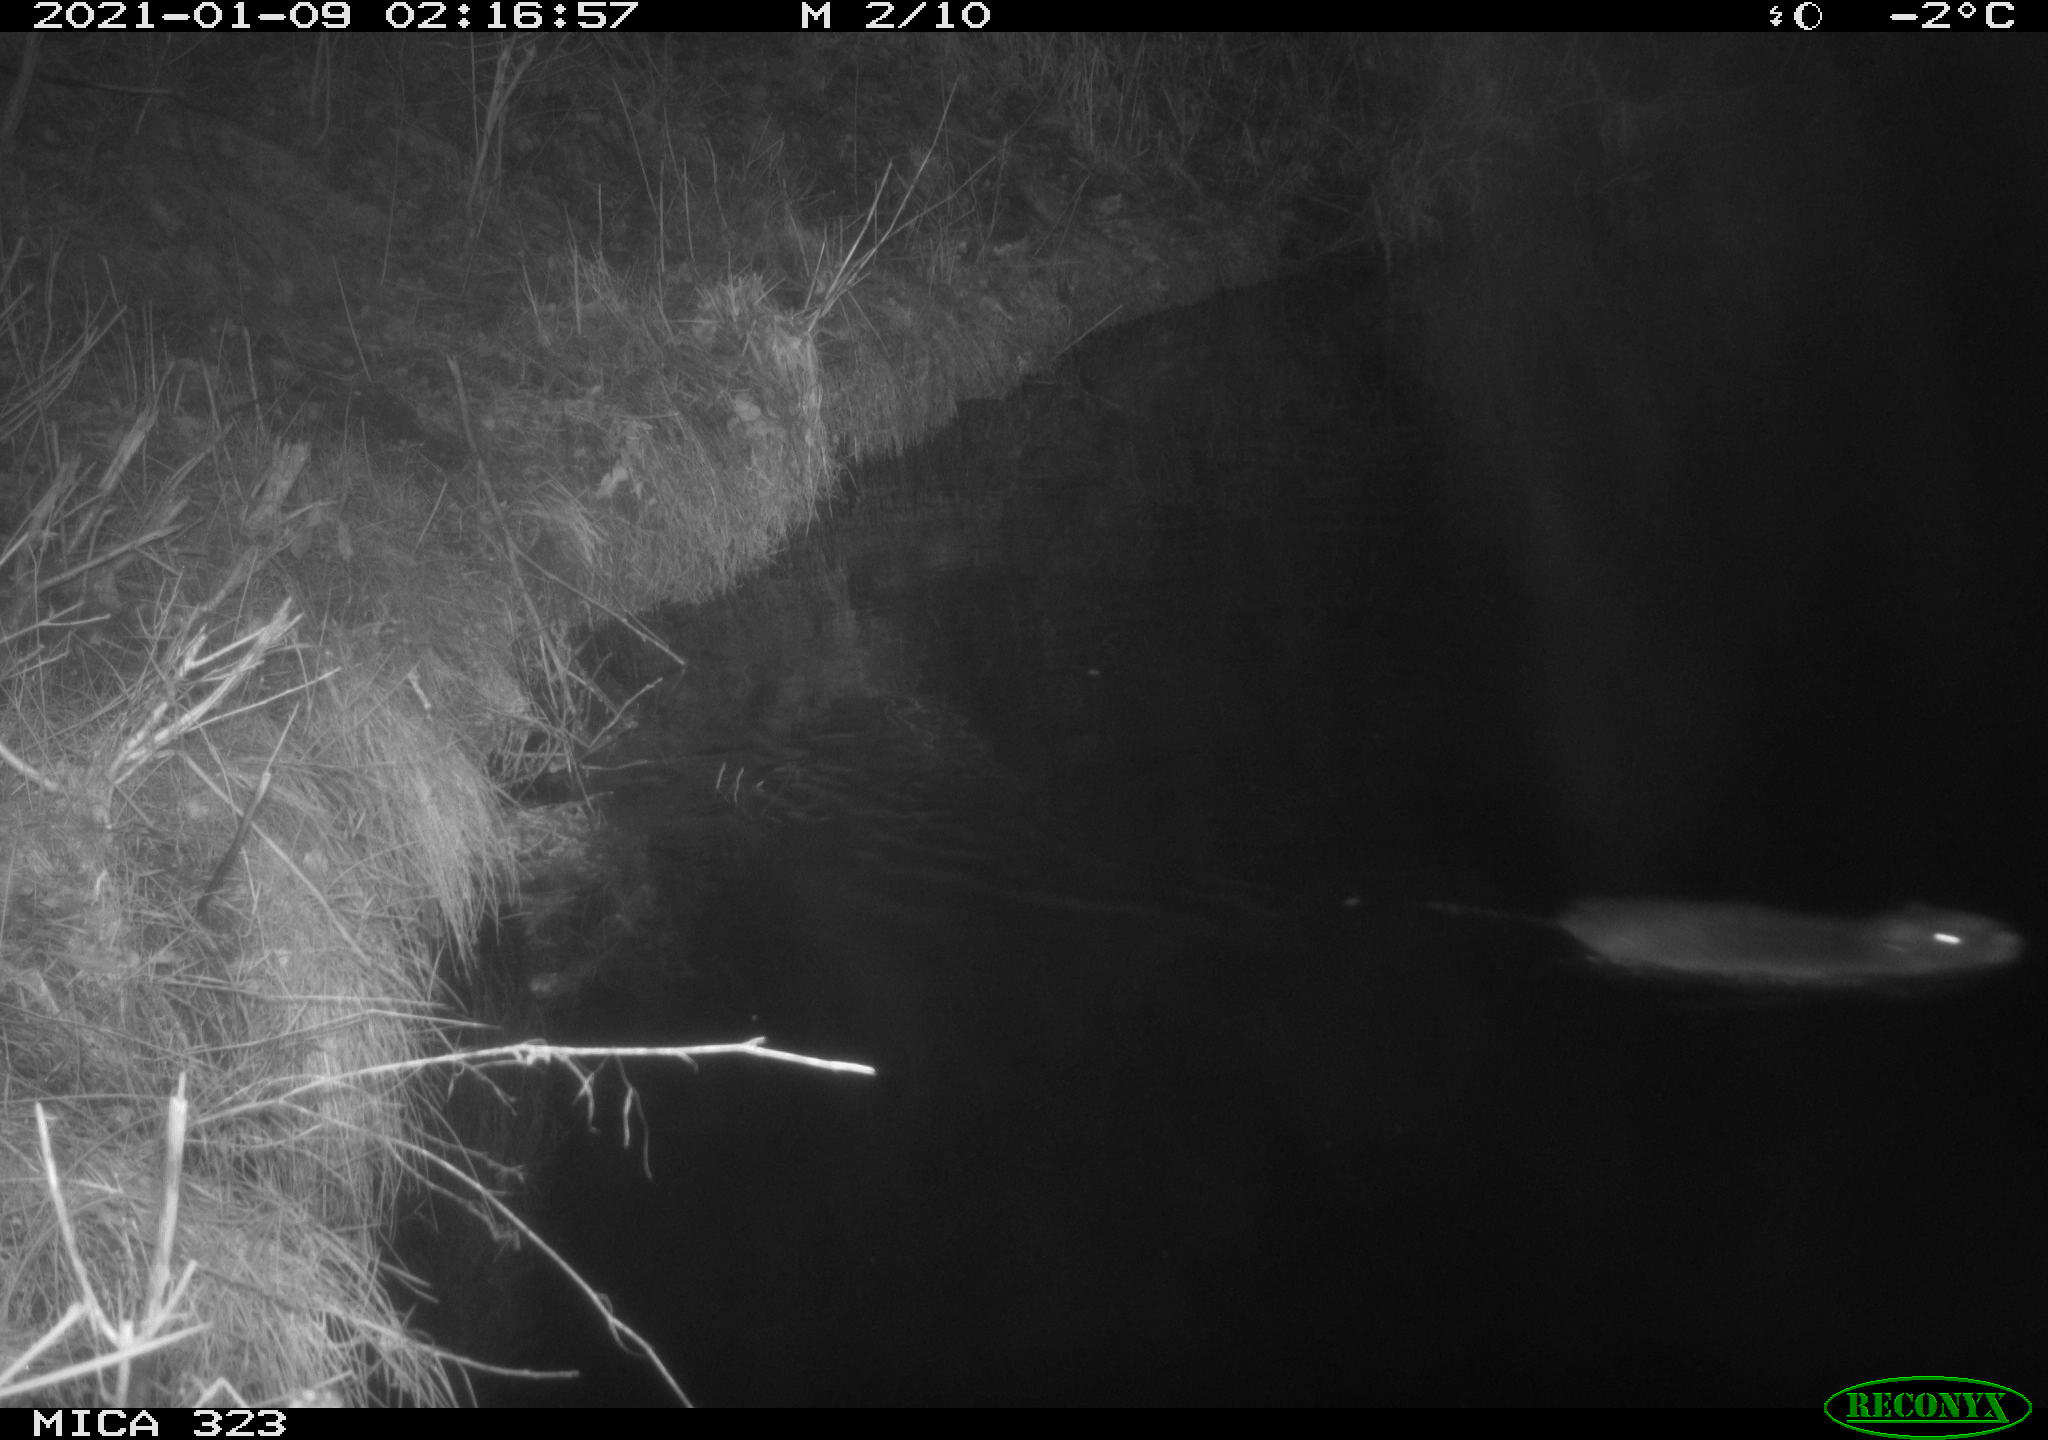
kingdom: Animalia
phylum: Chordata
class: Mammalia
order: Rodentia
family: Myocastoridae
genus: Myocastor
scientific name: Myocastor coypus
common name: Coypu
